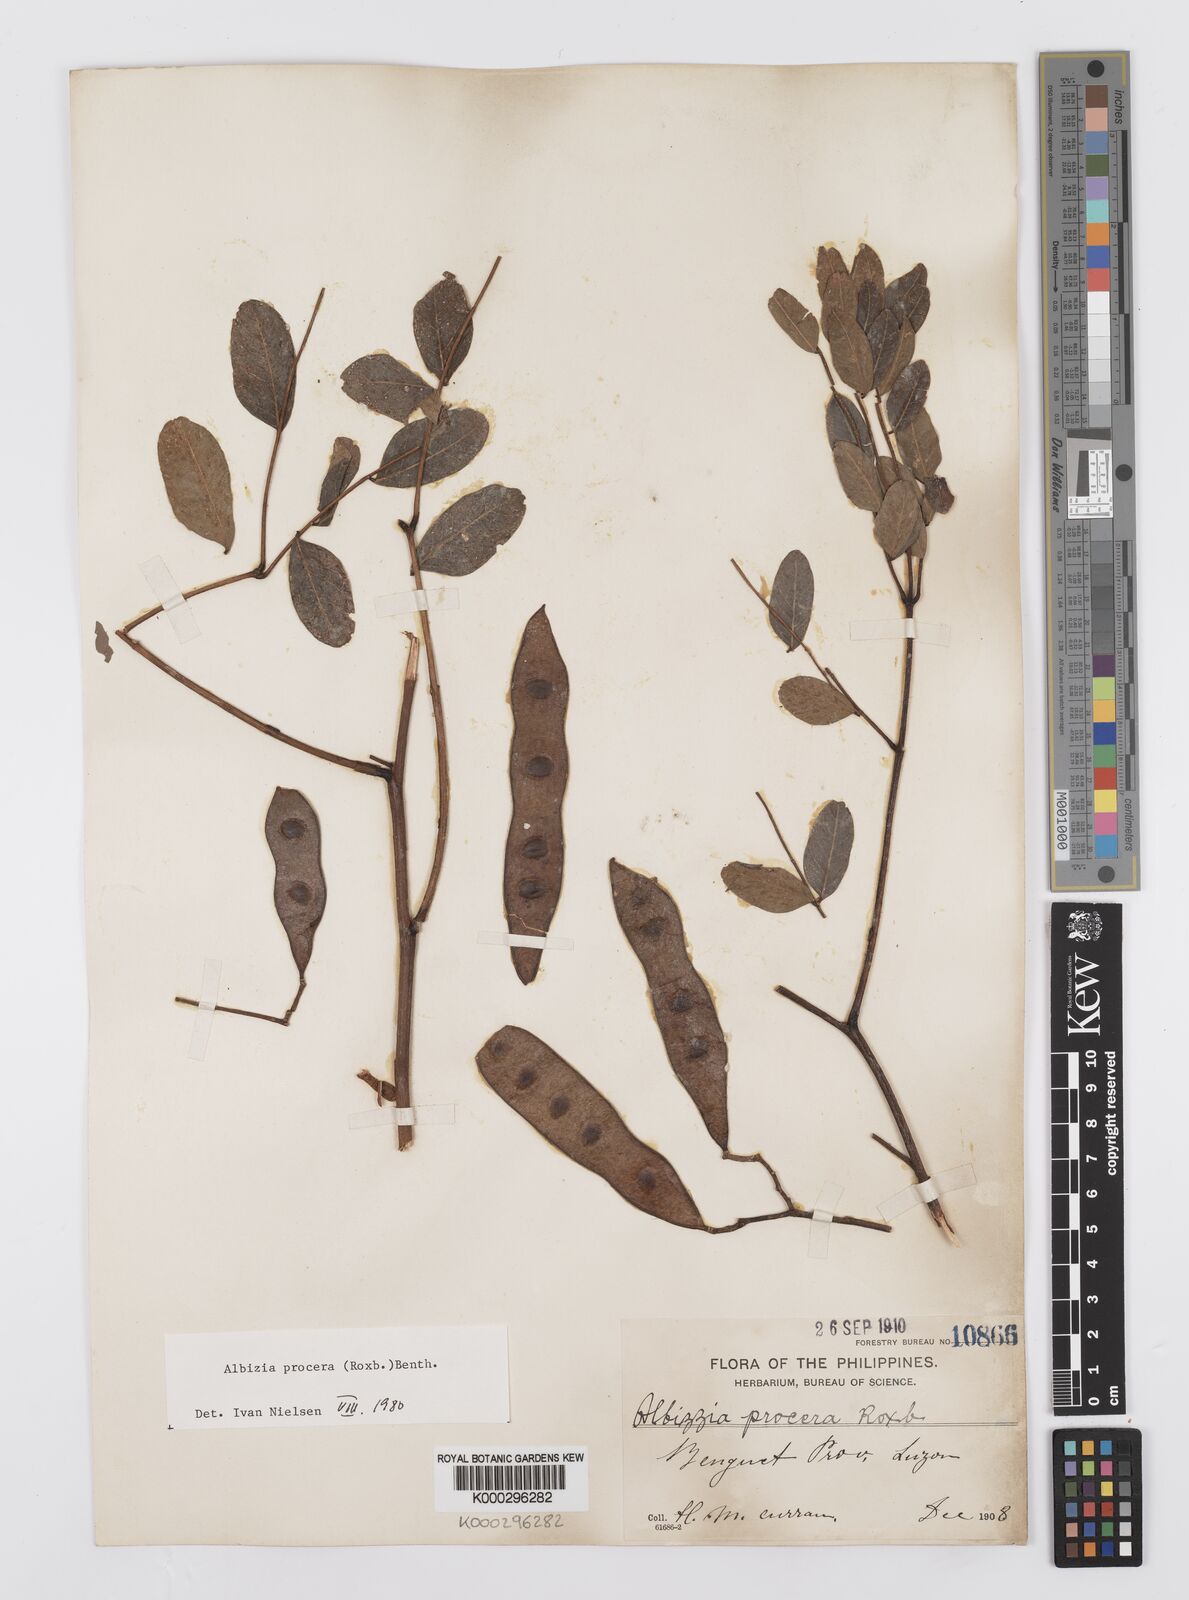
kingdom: Plantae
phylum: Tracheophyta
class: Magnoliopsida
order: Fabales
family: Fabaceae
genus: Albizia
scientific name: Albizia procera
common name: Tall albizia
